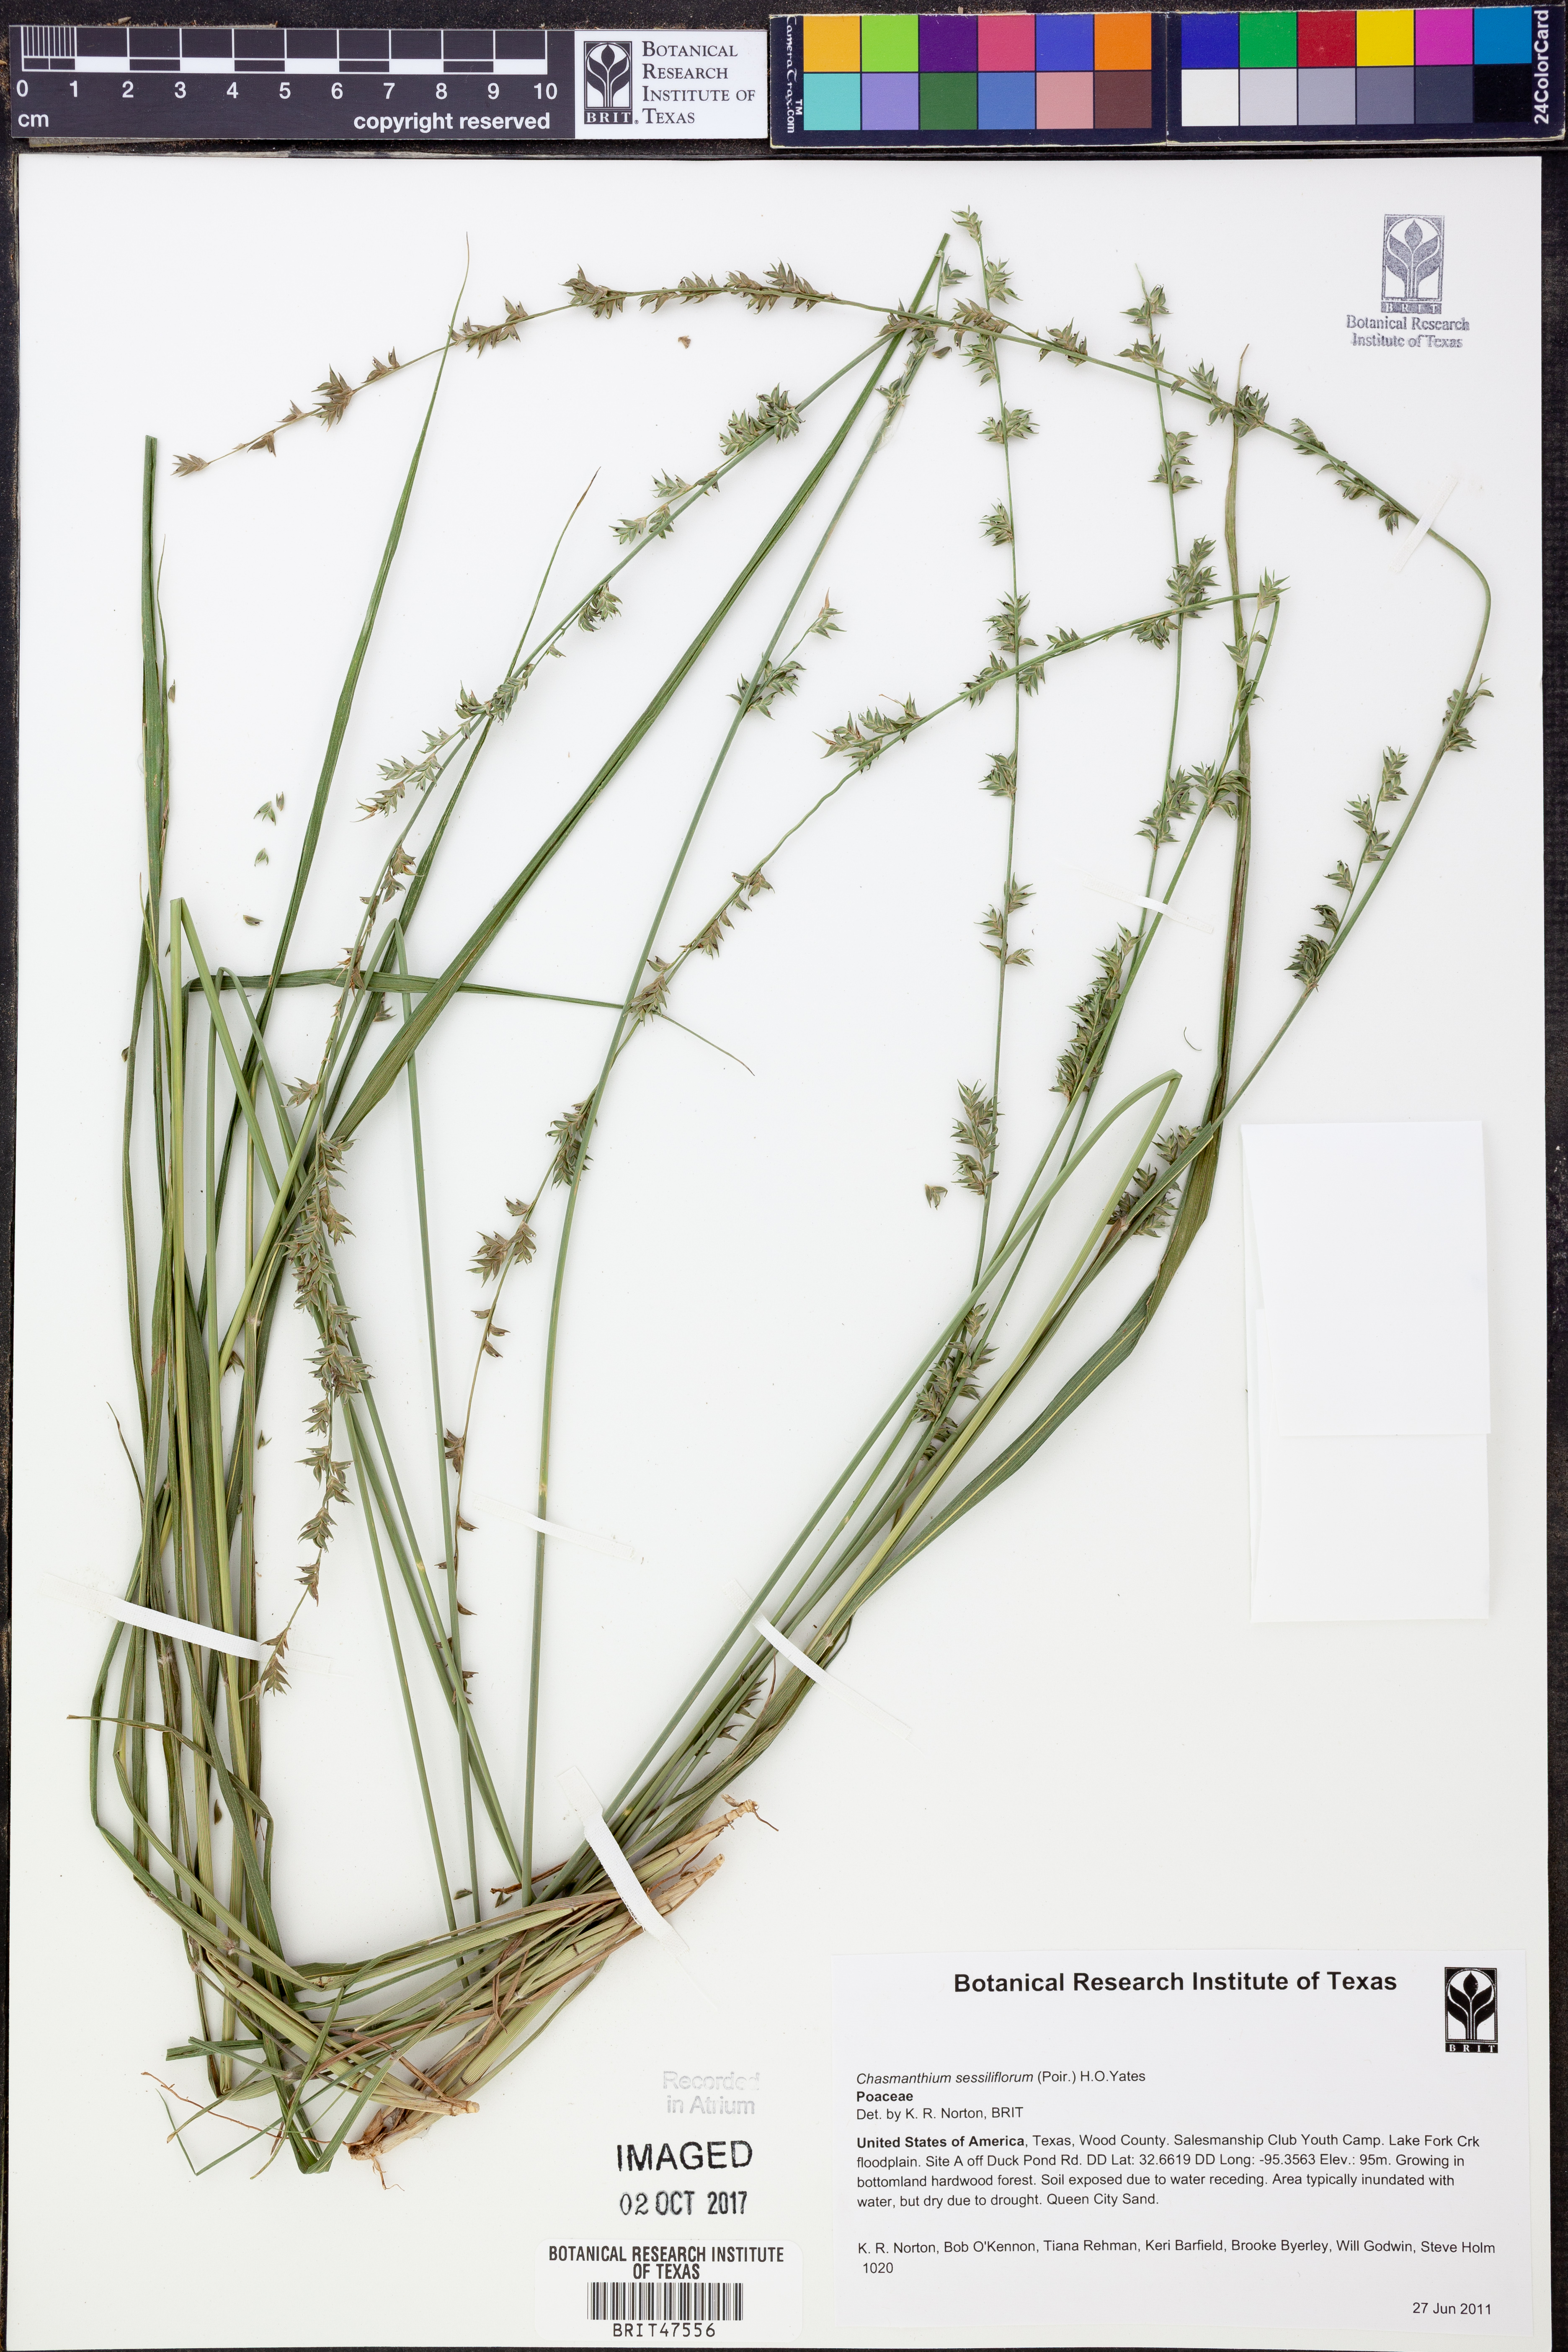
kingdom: Plantae
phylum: Tracheophyta
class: Liliopsida
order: Poales
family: Poaceae
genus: Chasmanthium
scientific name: Chasmanthium laxum
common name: Slender chasmanthium
